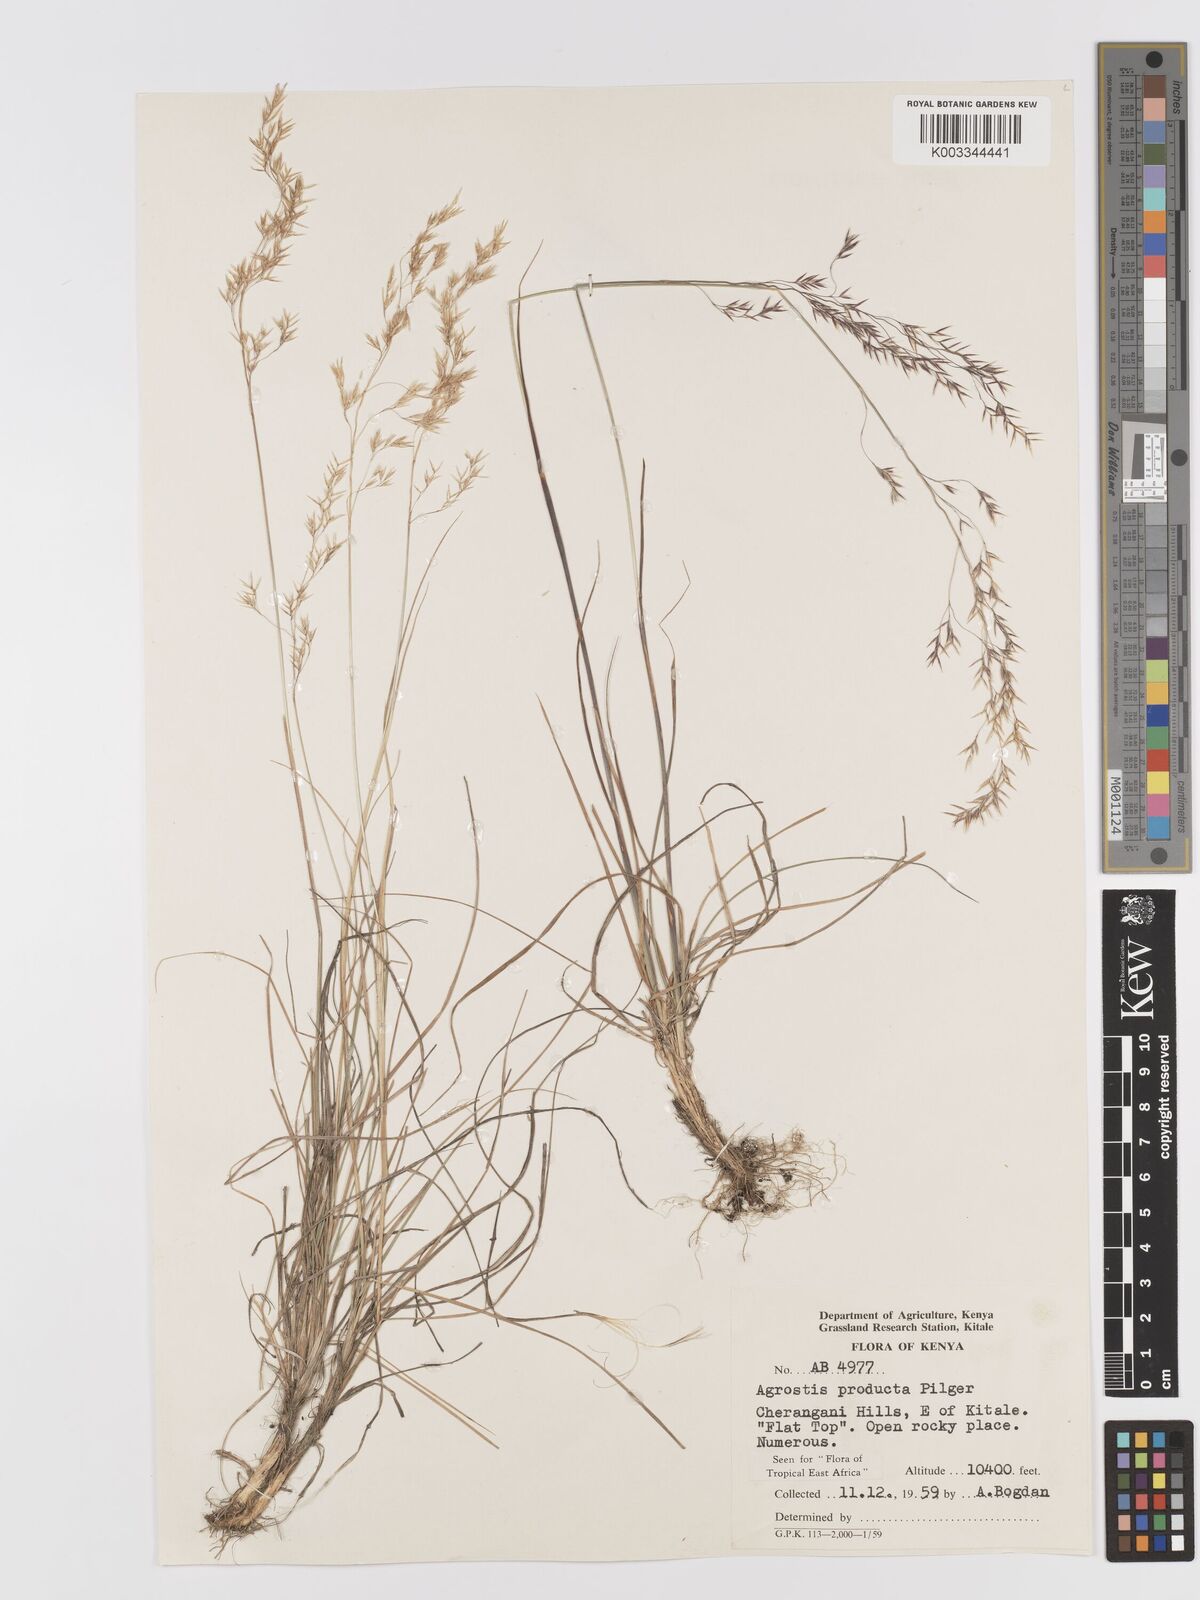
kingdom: Plantae
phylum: Tracheophyta
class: Liliopsida
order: Poales
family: Poaceae
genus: Agrostis
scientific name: Agrostis producta
